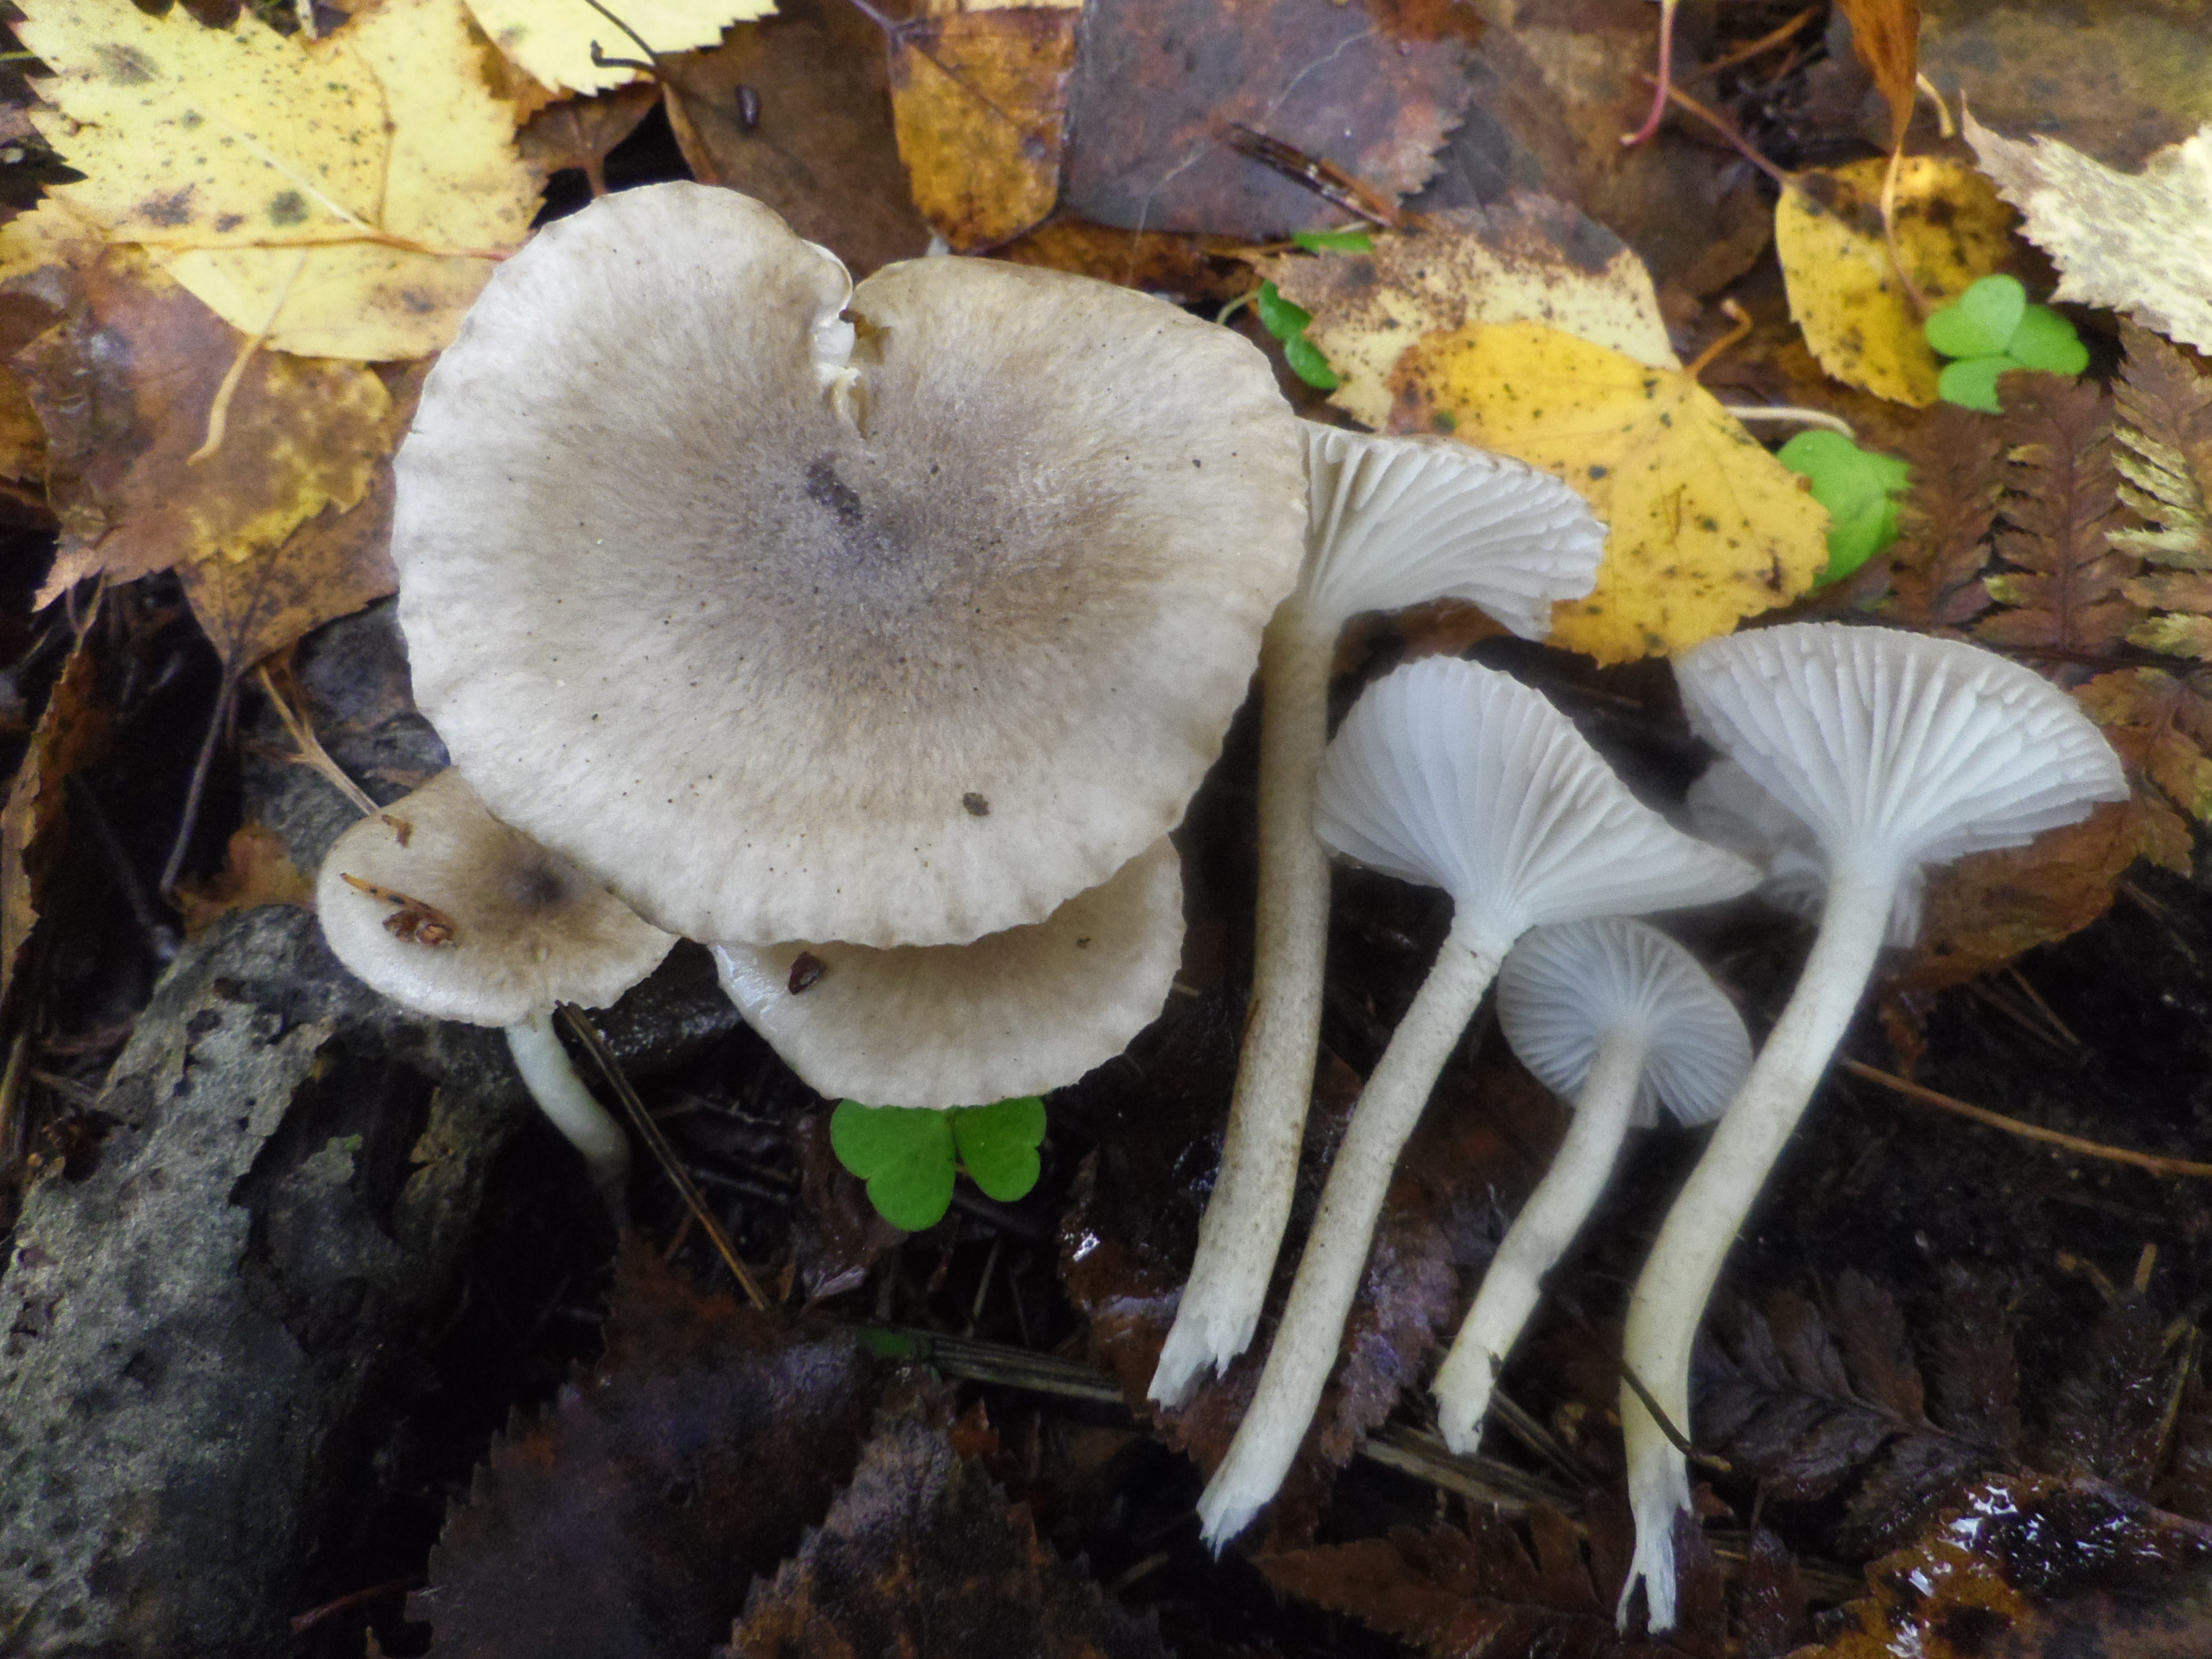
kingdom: Fungi
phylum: Basidiomycota
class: Agaricomycetes
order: Agaricales
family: Hygrophoraceae
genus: Hygrophorus
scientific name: Hygrophorus pustulatus
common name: Blistered woodwax
